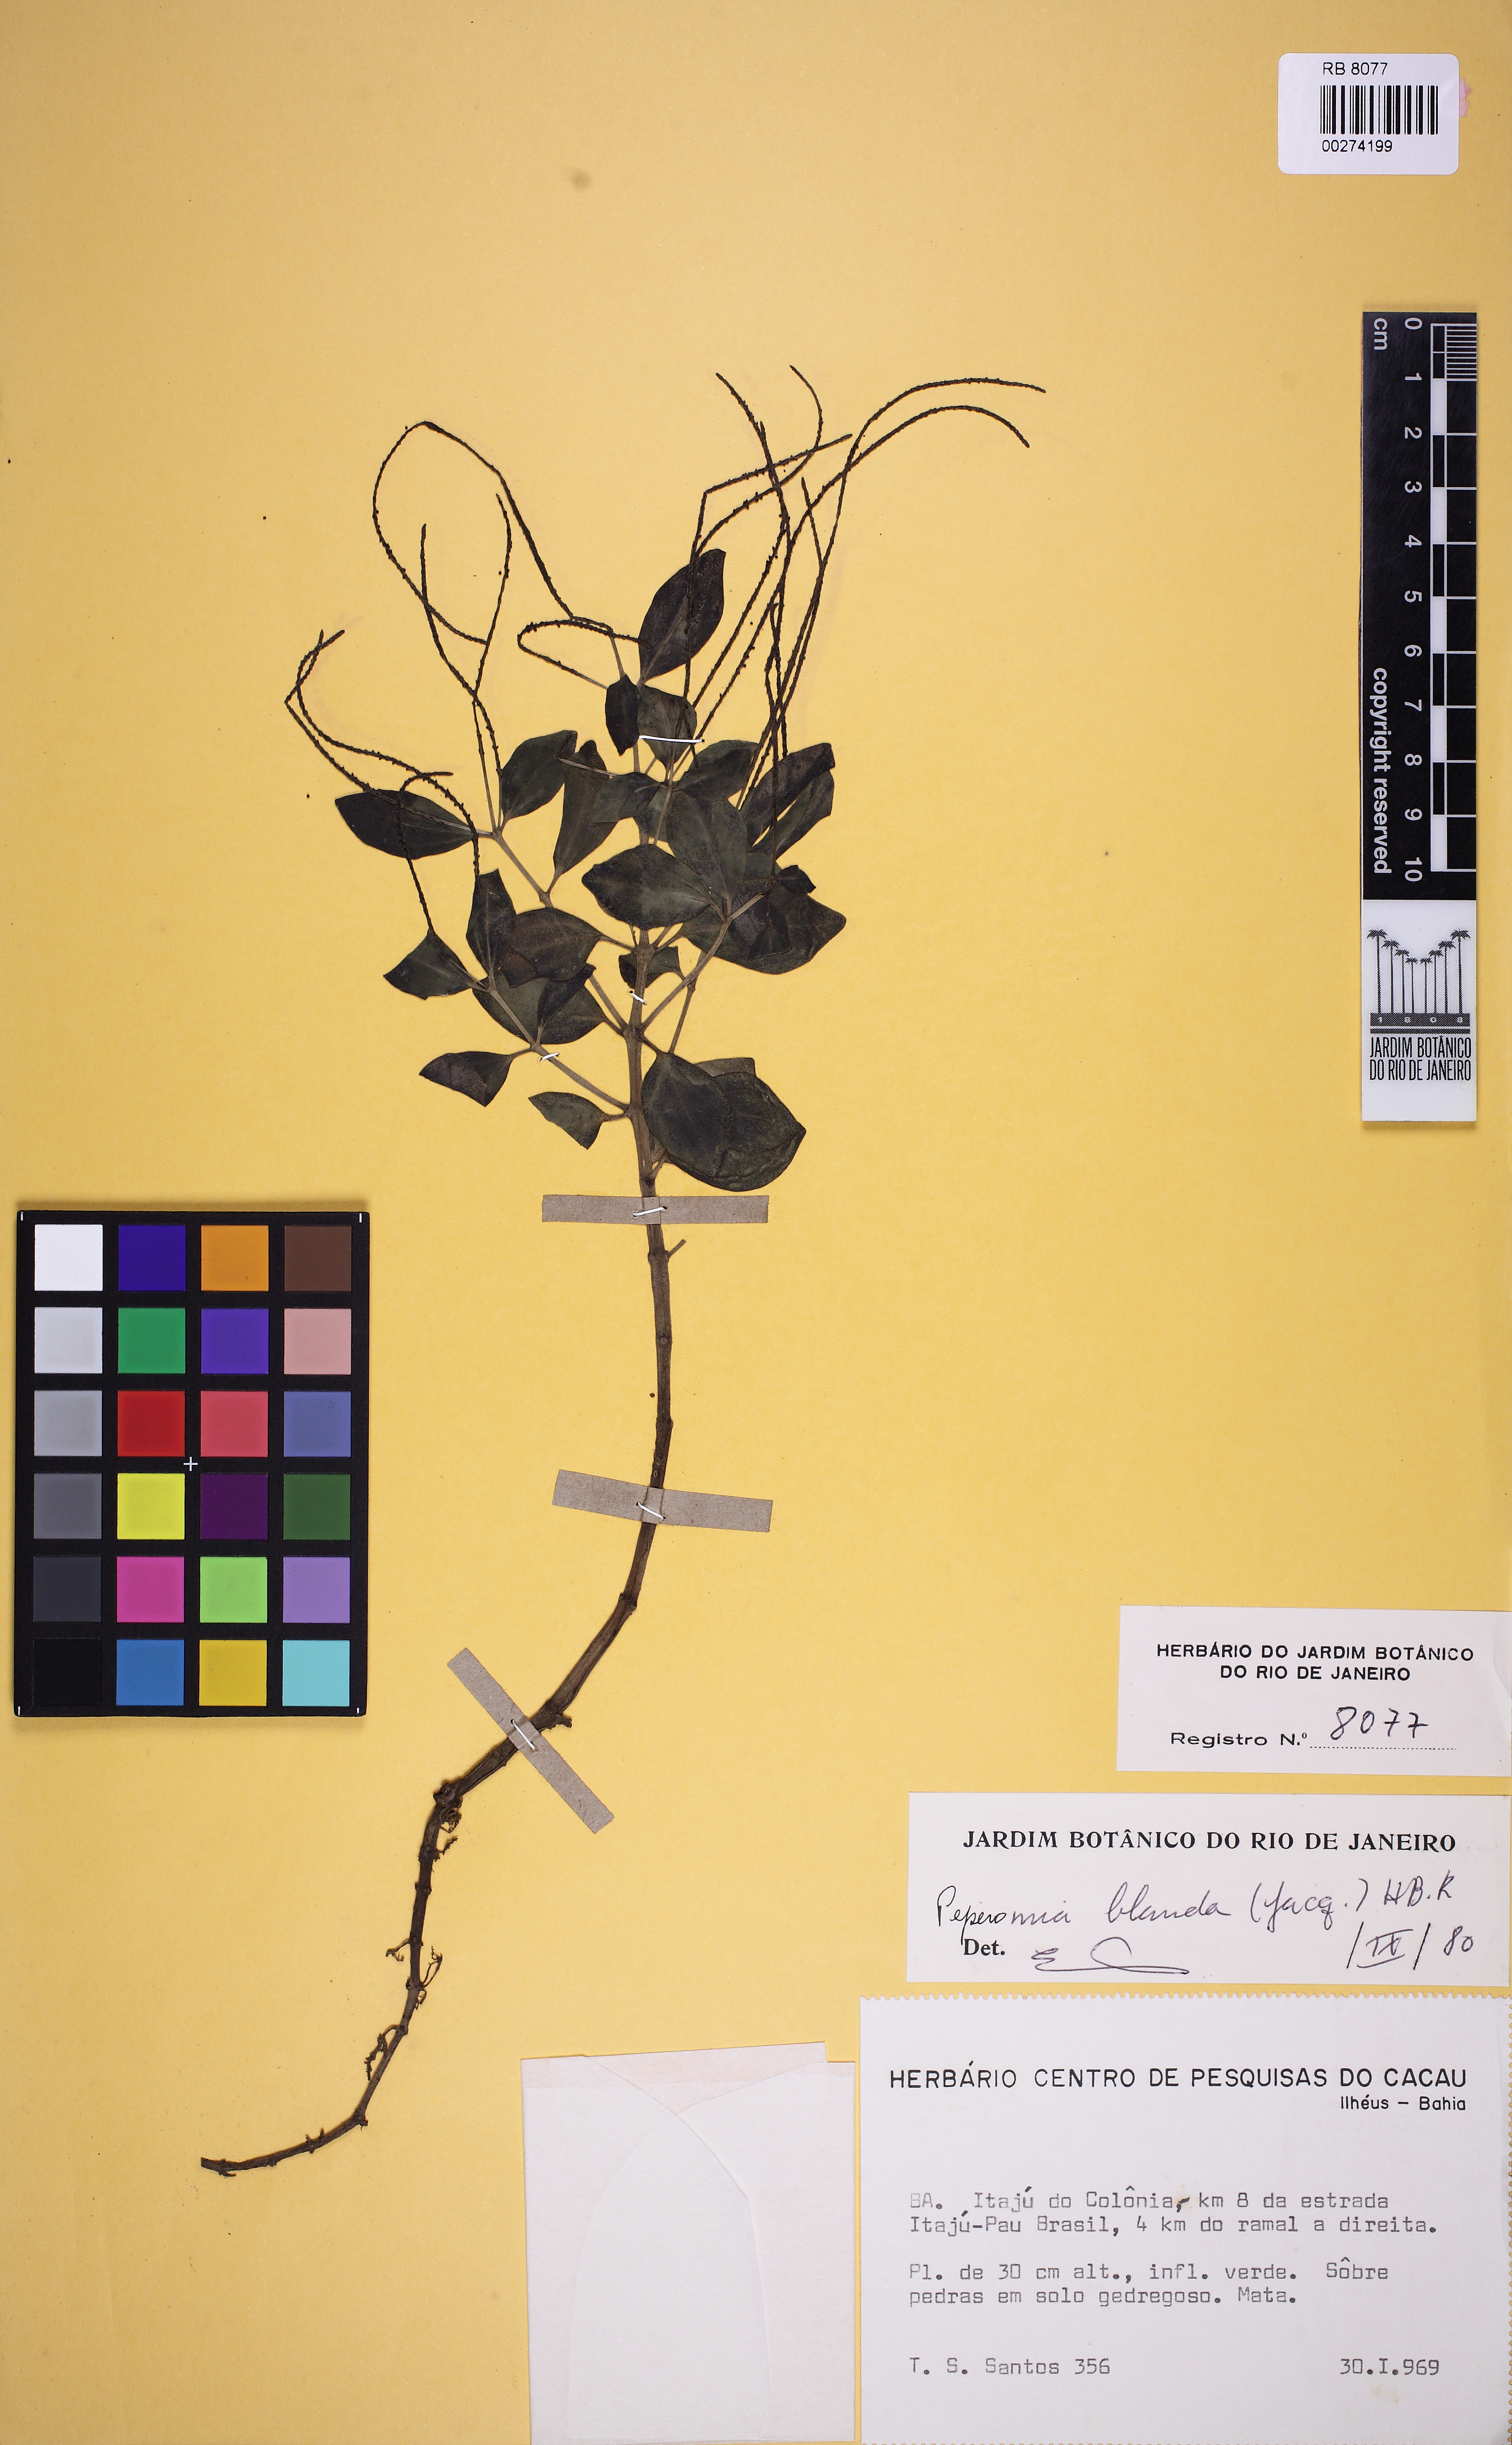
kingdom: Plantae
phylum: Tracheophyta
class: Magnoliopsida
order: Piperales
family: Piperaceae
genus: Peperomia
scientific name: Peperomia blanda
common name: Arid-land peperomia
